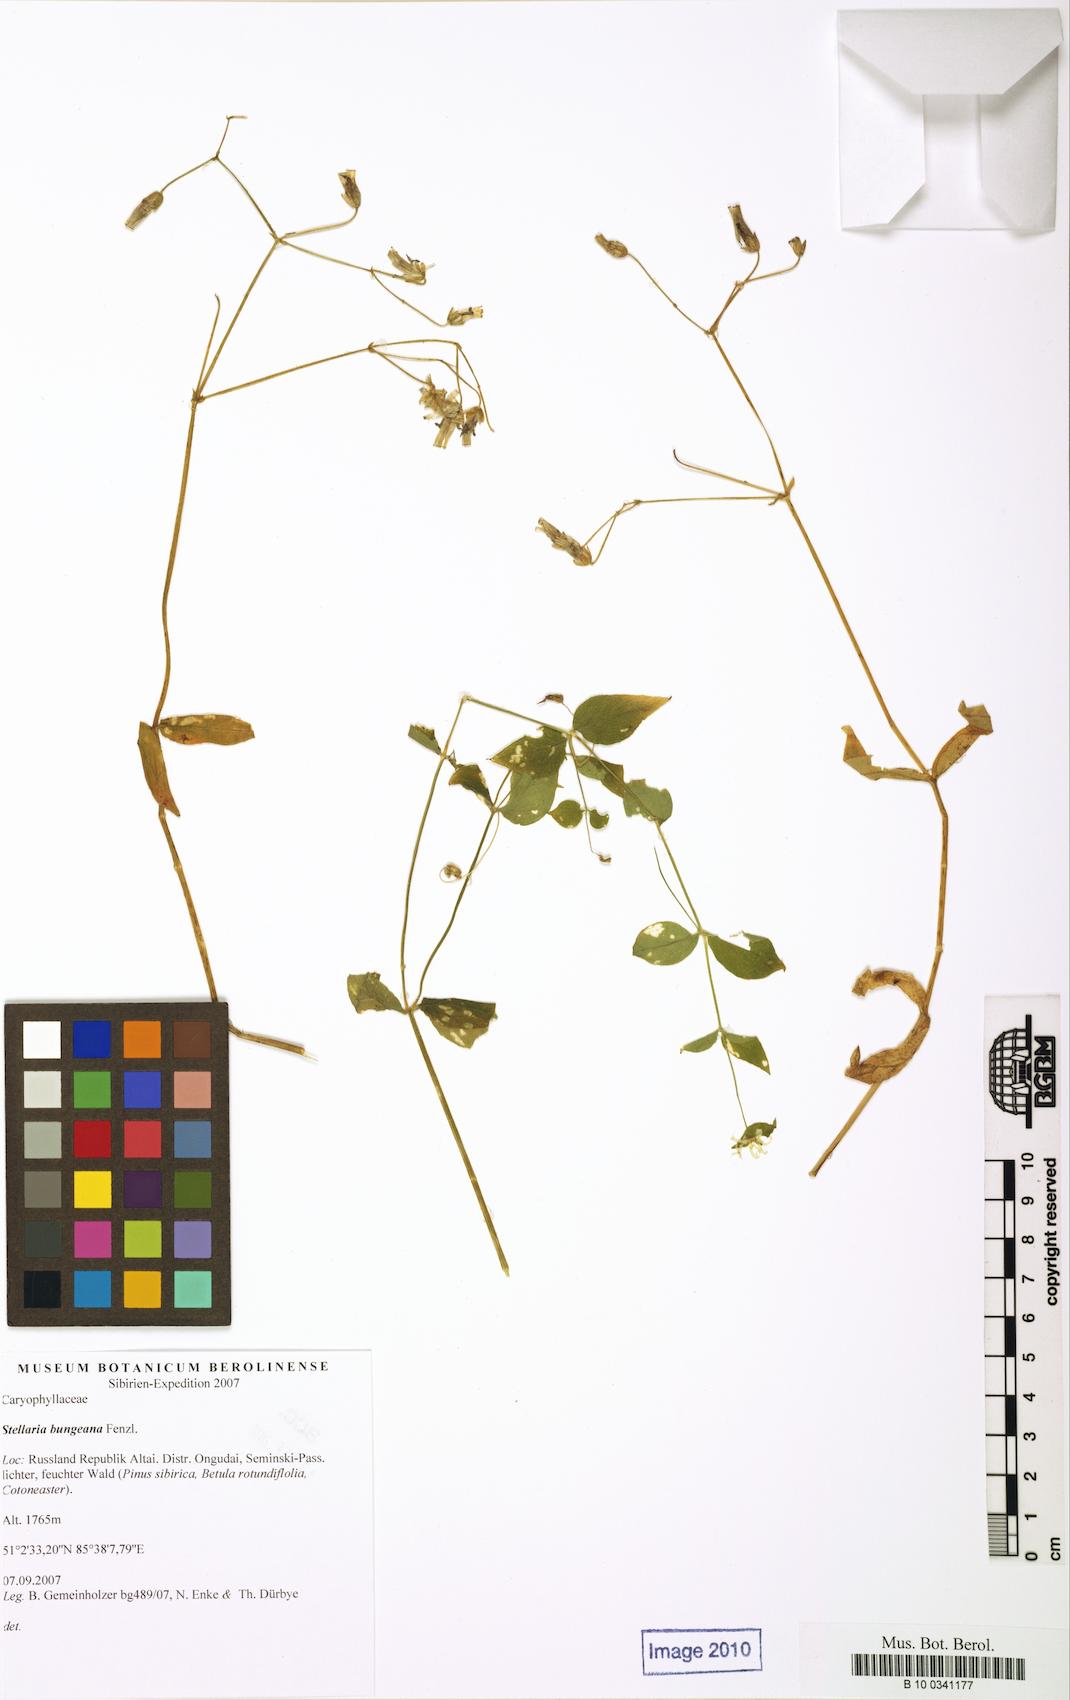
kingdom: Plantae
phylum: Tracheophyta
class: Magnoliopsida
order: Caryophyllales
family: Caryophyllaceae
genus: Stellaria
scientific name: Stellaria bungeana
